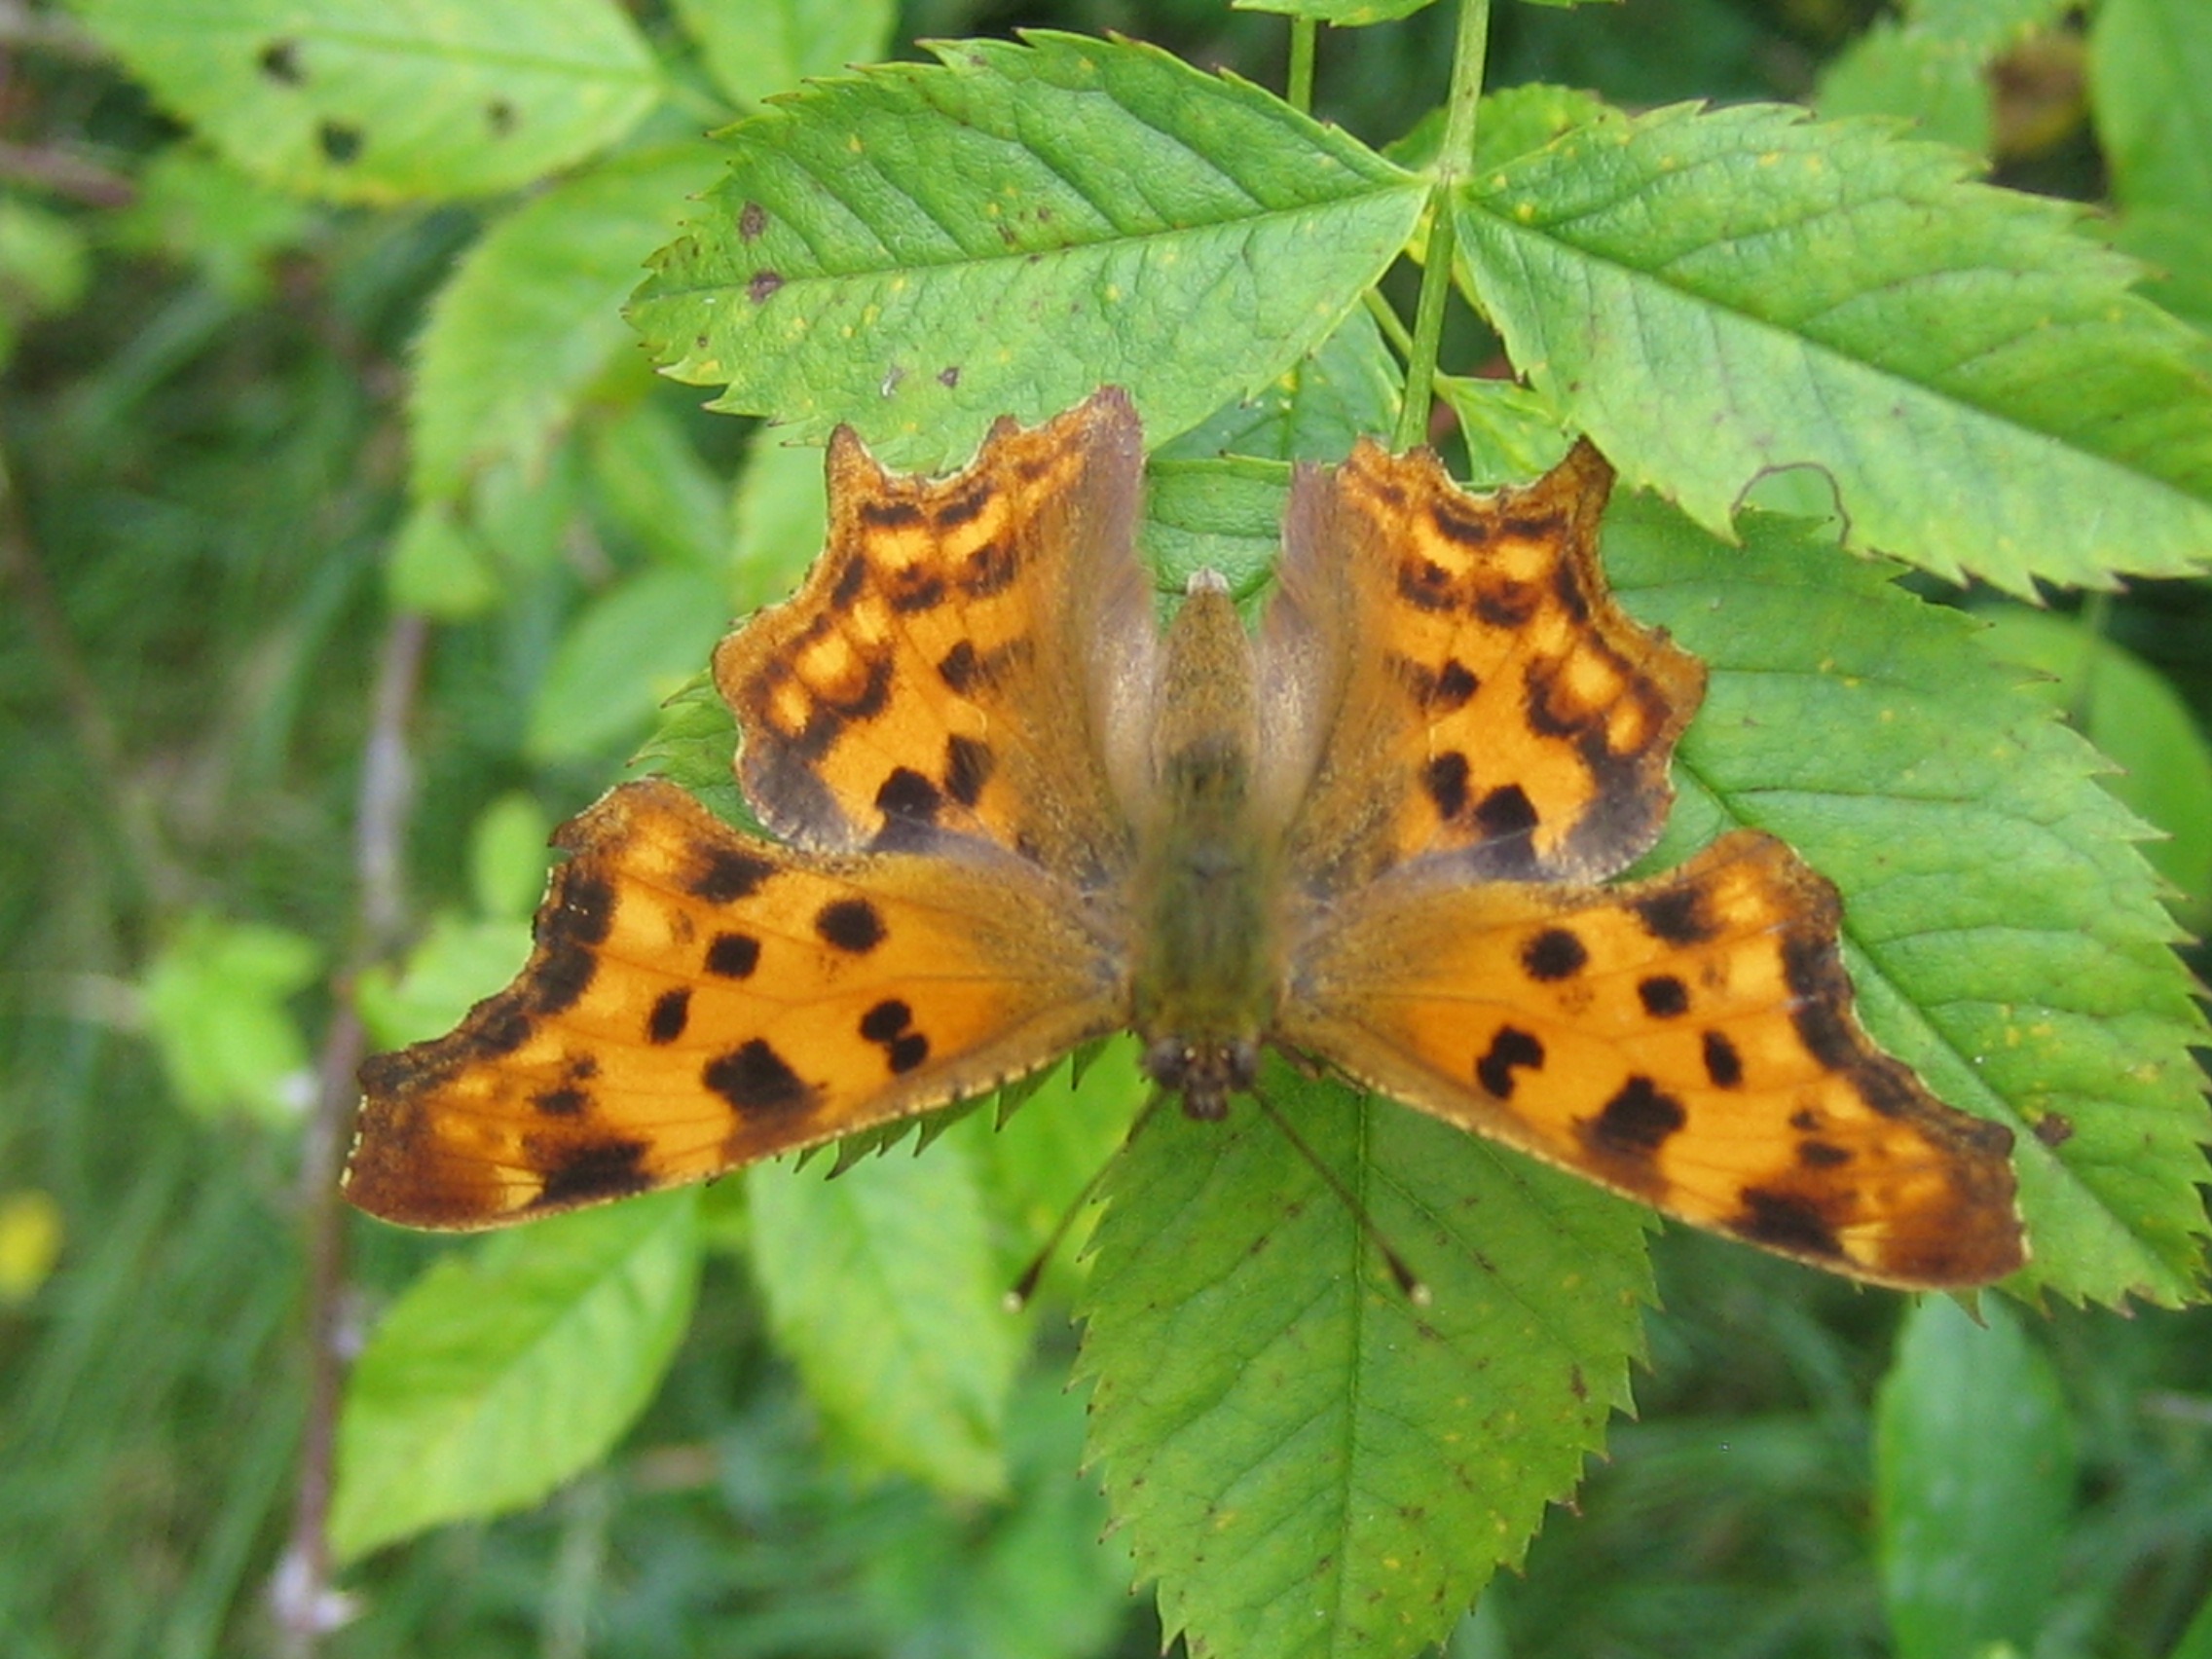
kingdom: Animalia
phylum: Arthropoda
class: Insecta
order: Lepidoptera
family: Nymphalidae
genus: Polygonia
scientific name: Polygonia c-album
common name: Det hvide C
